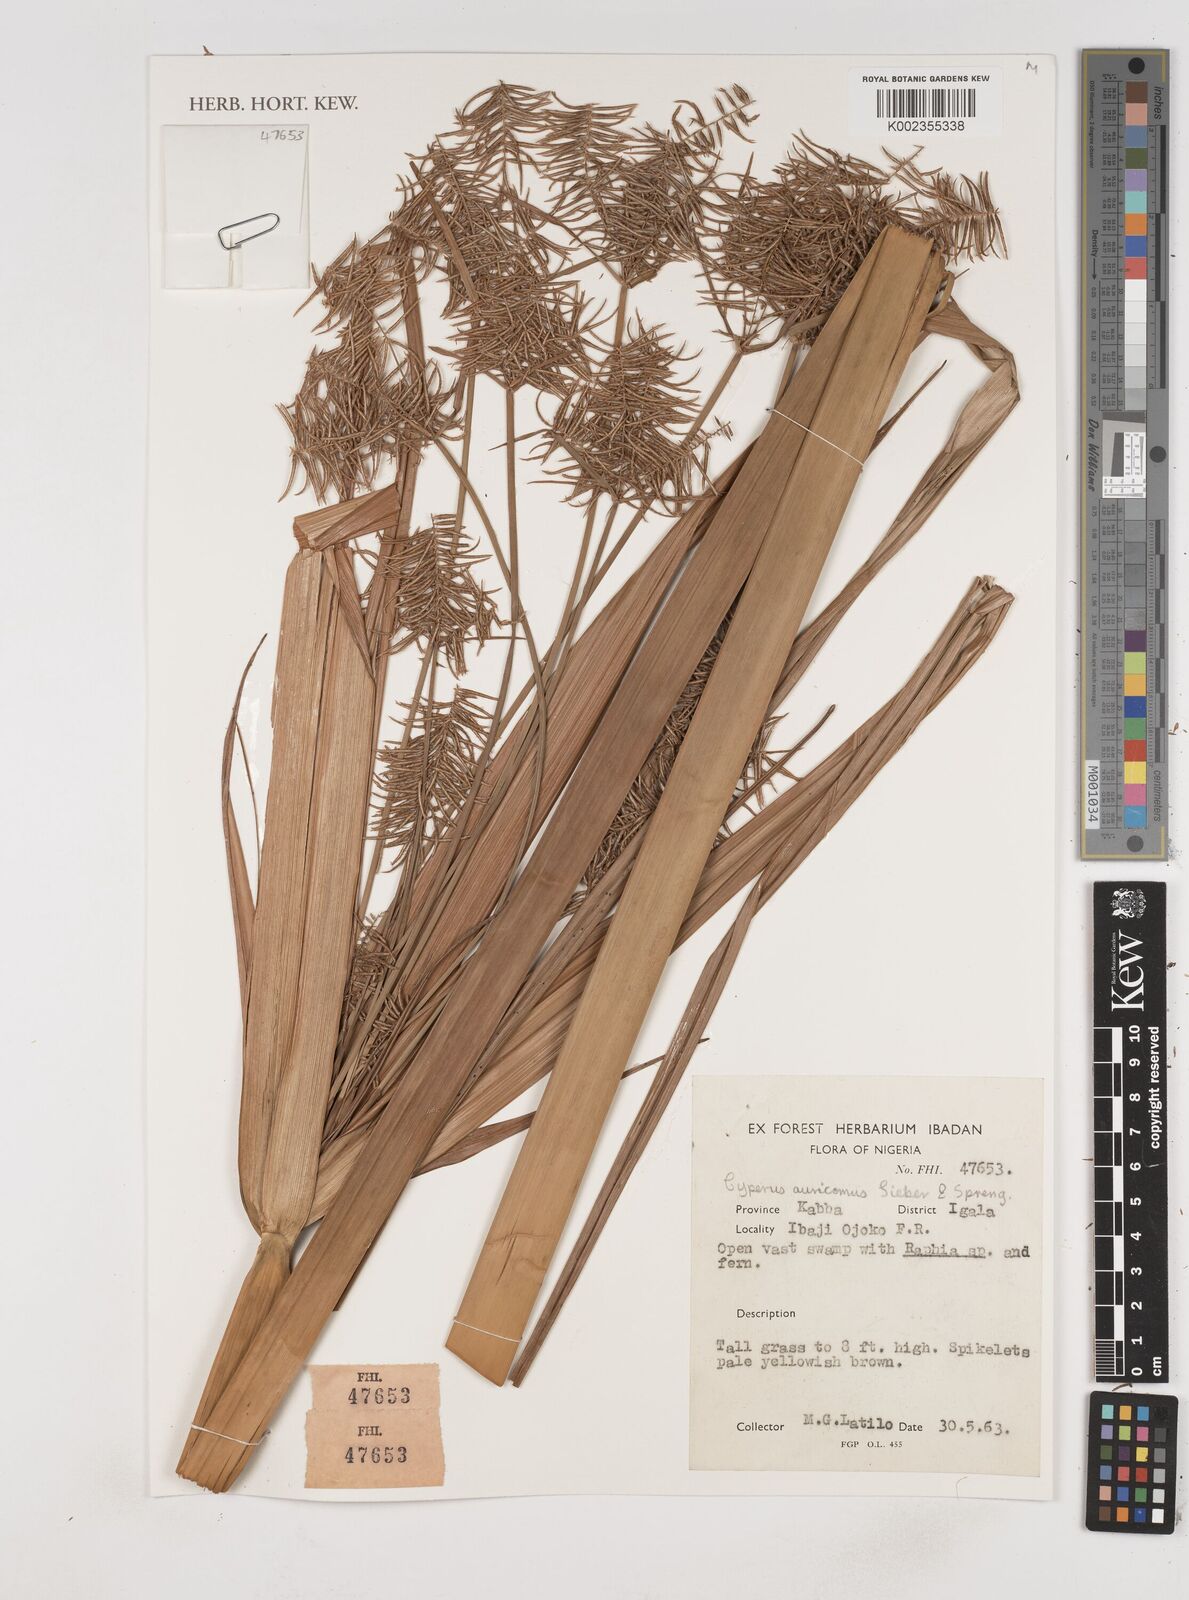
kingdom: Plantae
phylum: Tracheophyta
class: Liliopsida
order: Poales
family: Cyperaceae
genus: Cyperus
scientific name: Cyperus digitatus
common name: Finger flatsedge
